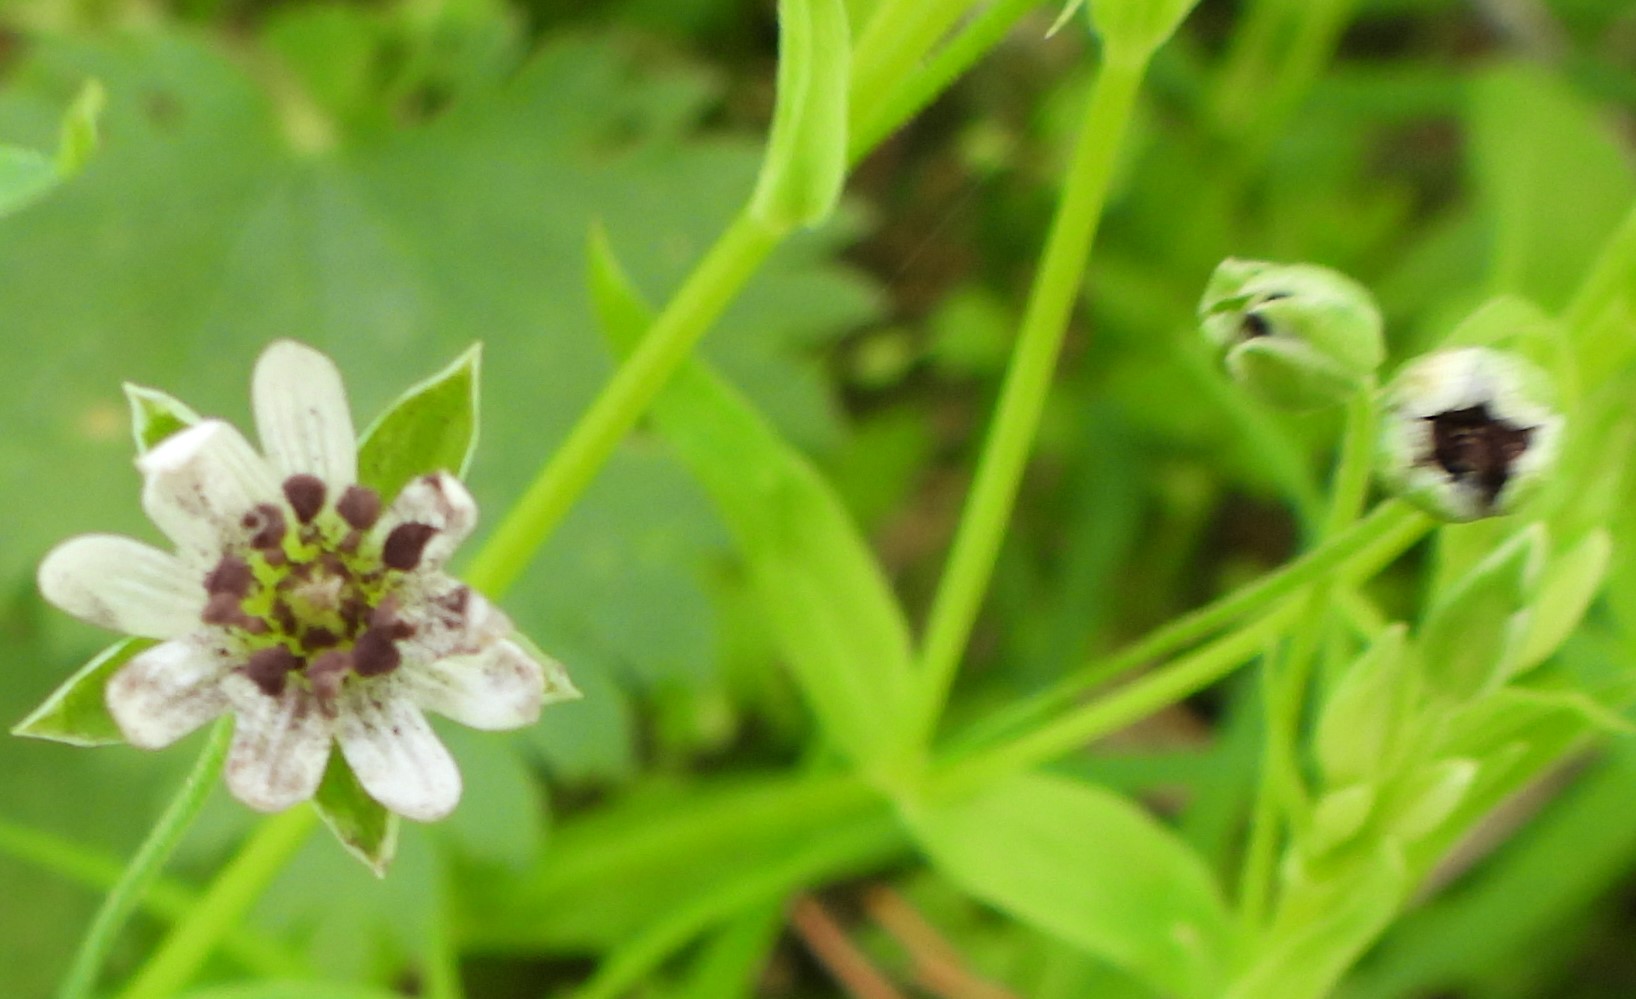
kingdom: Fungi
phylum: Basidiomycota
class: Microbotryomycetes
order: Microbotryales
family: Microbotryaceae
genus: Microbotryum
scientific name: Microbotryum stellariae
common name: fladstjerne-støvbladrust
